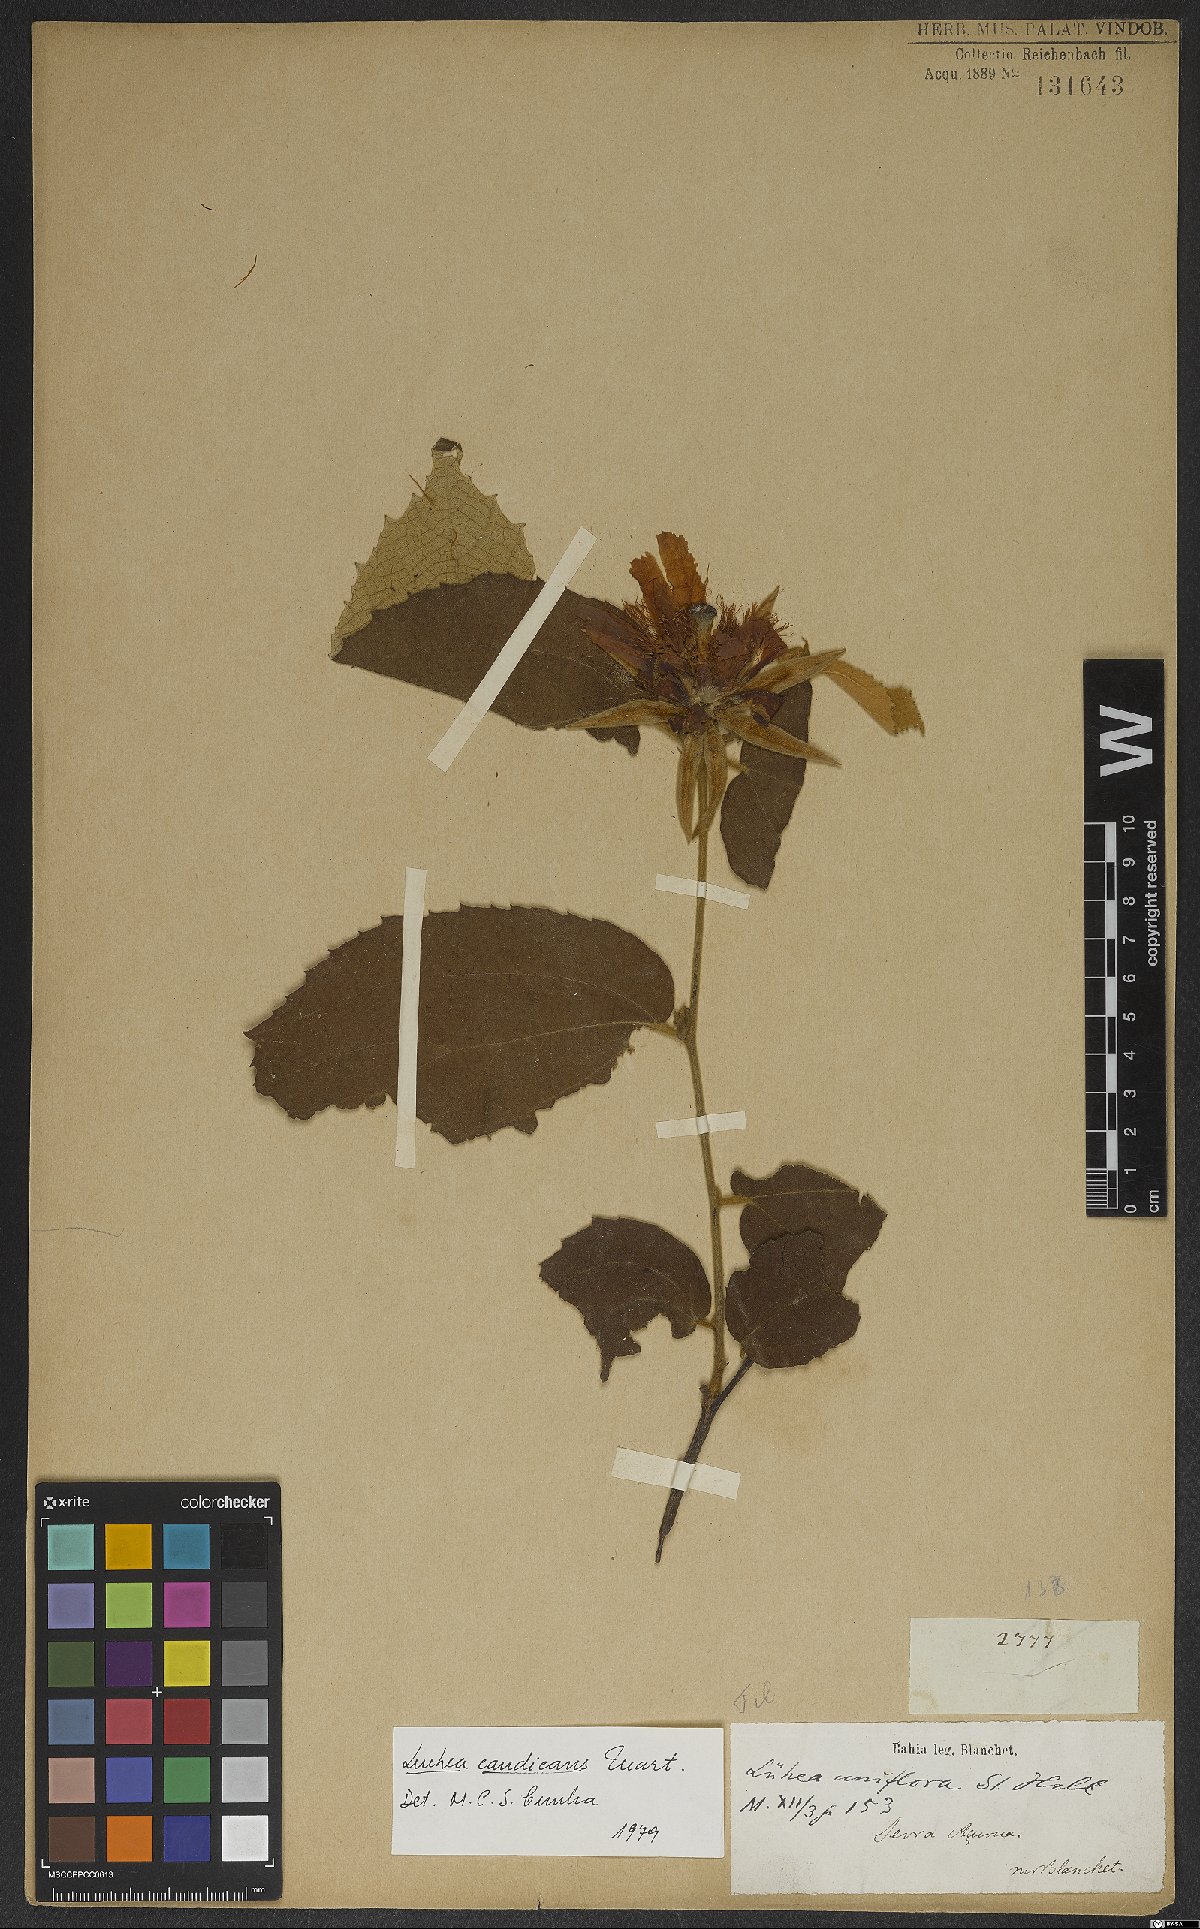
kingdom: Plantae
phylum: Tracheophyta
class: Magnoliopsida
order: Malvales
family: Malvaceae
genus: Luehea
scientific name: Luehea candicans
